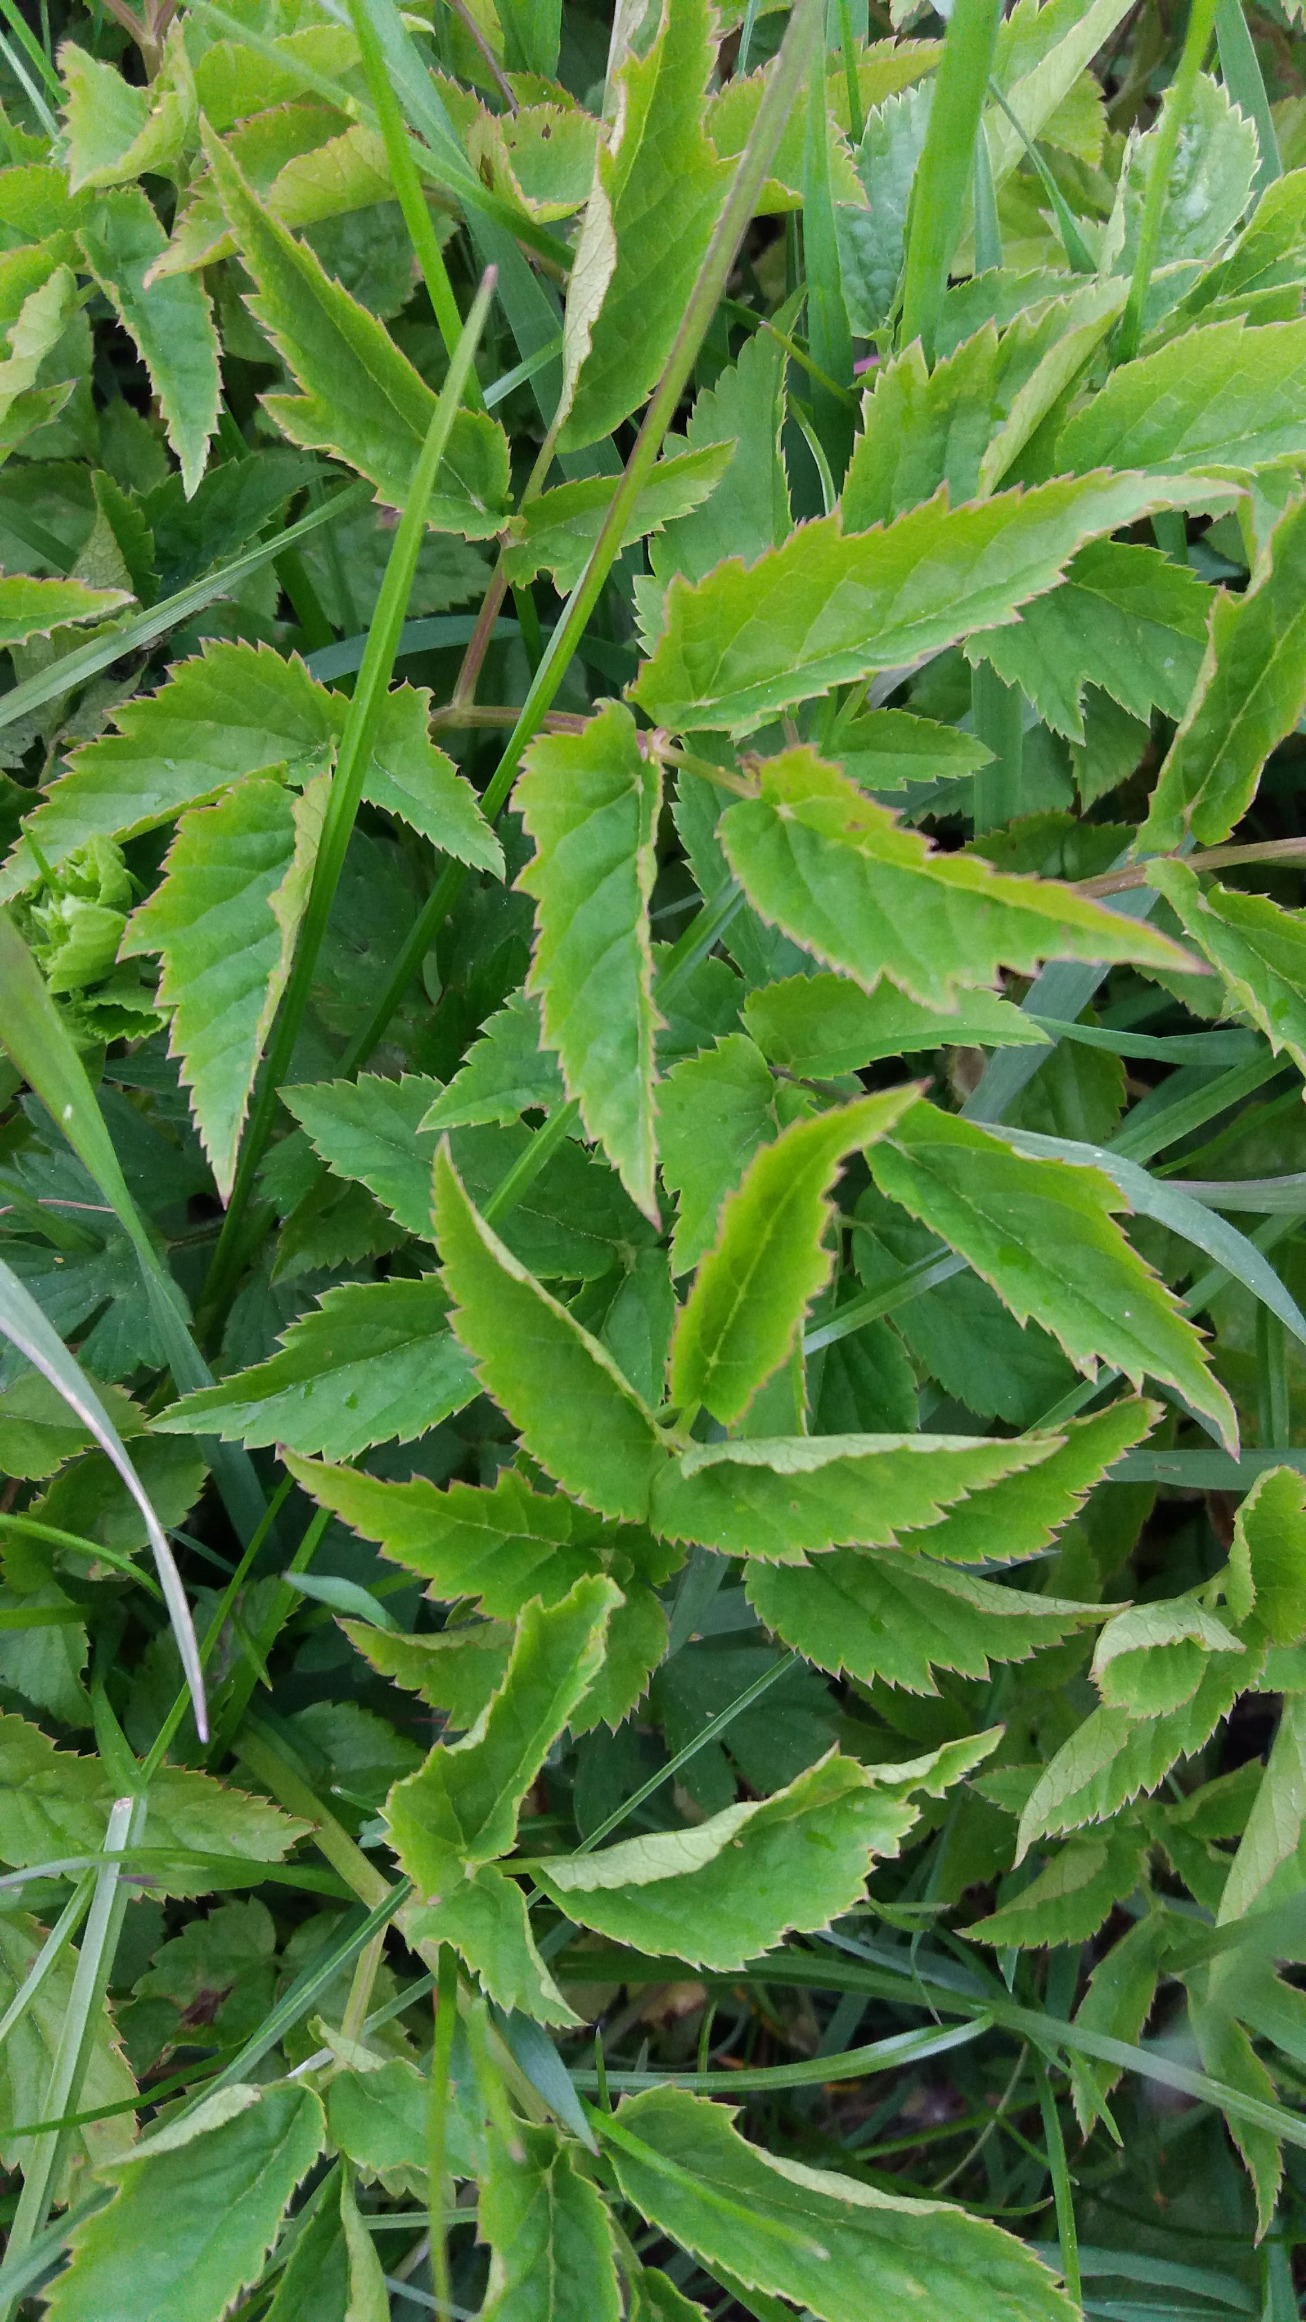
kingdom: Plantae
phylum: Tracheophyta
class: Magnoliopsida
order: Apiales
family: Apiaceae
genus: Aegopodium
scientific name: Aegopodium podagraria
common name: Skvalderkål
